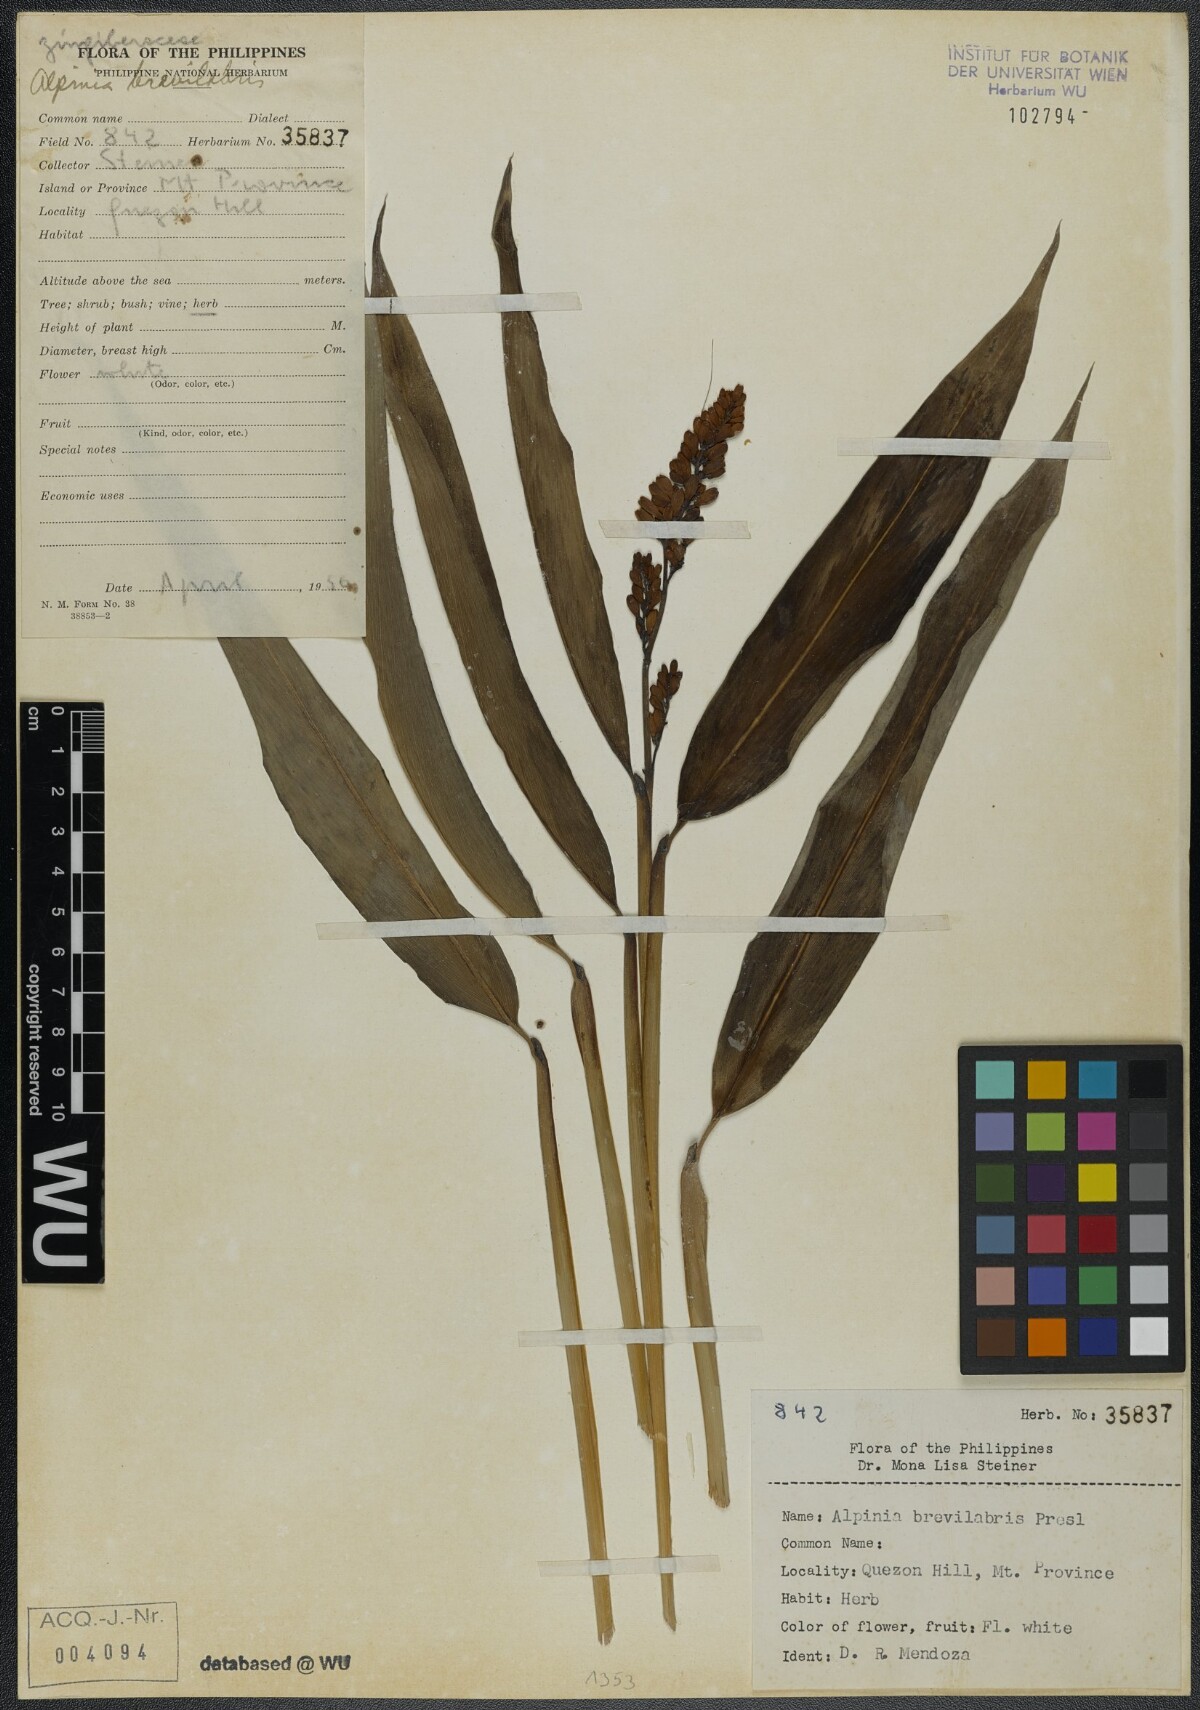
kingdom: Plantae
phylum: Tracheophyta
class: Liliopsida
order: Zingiberales
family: Zingiberaceae
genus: Alpinia
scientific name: Alpinia brevilabris
